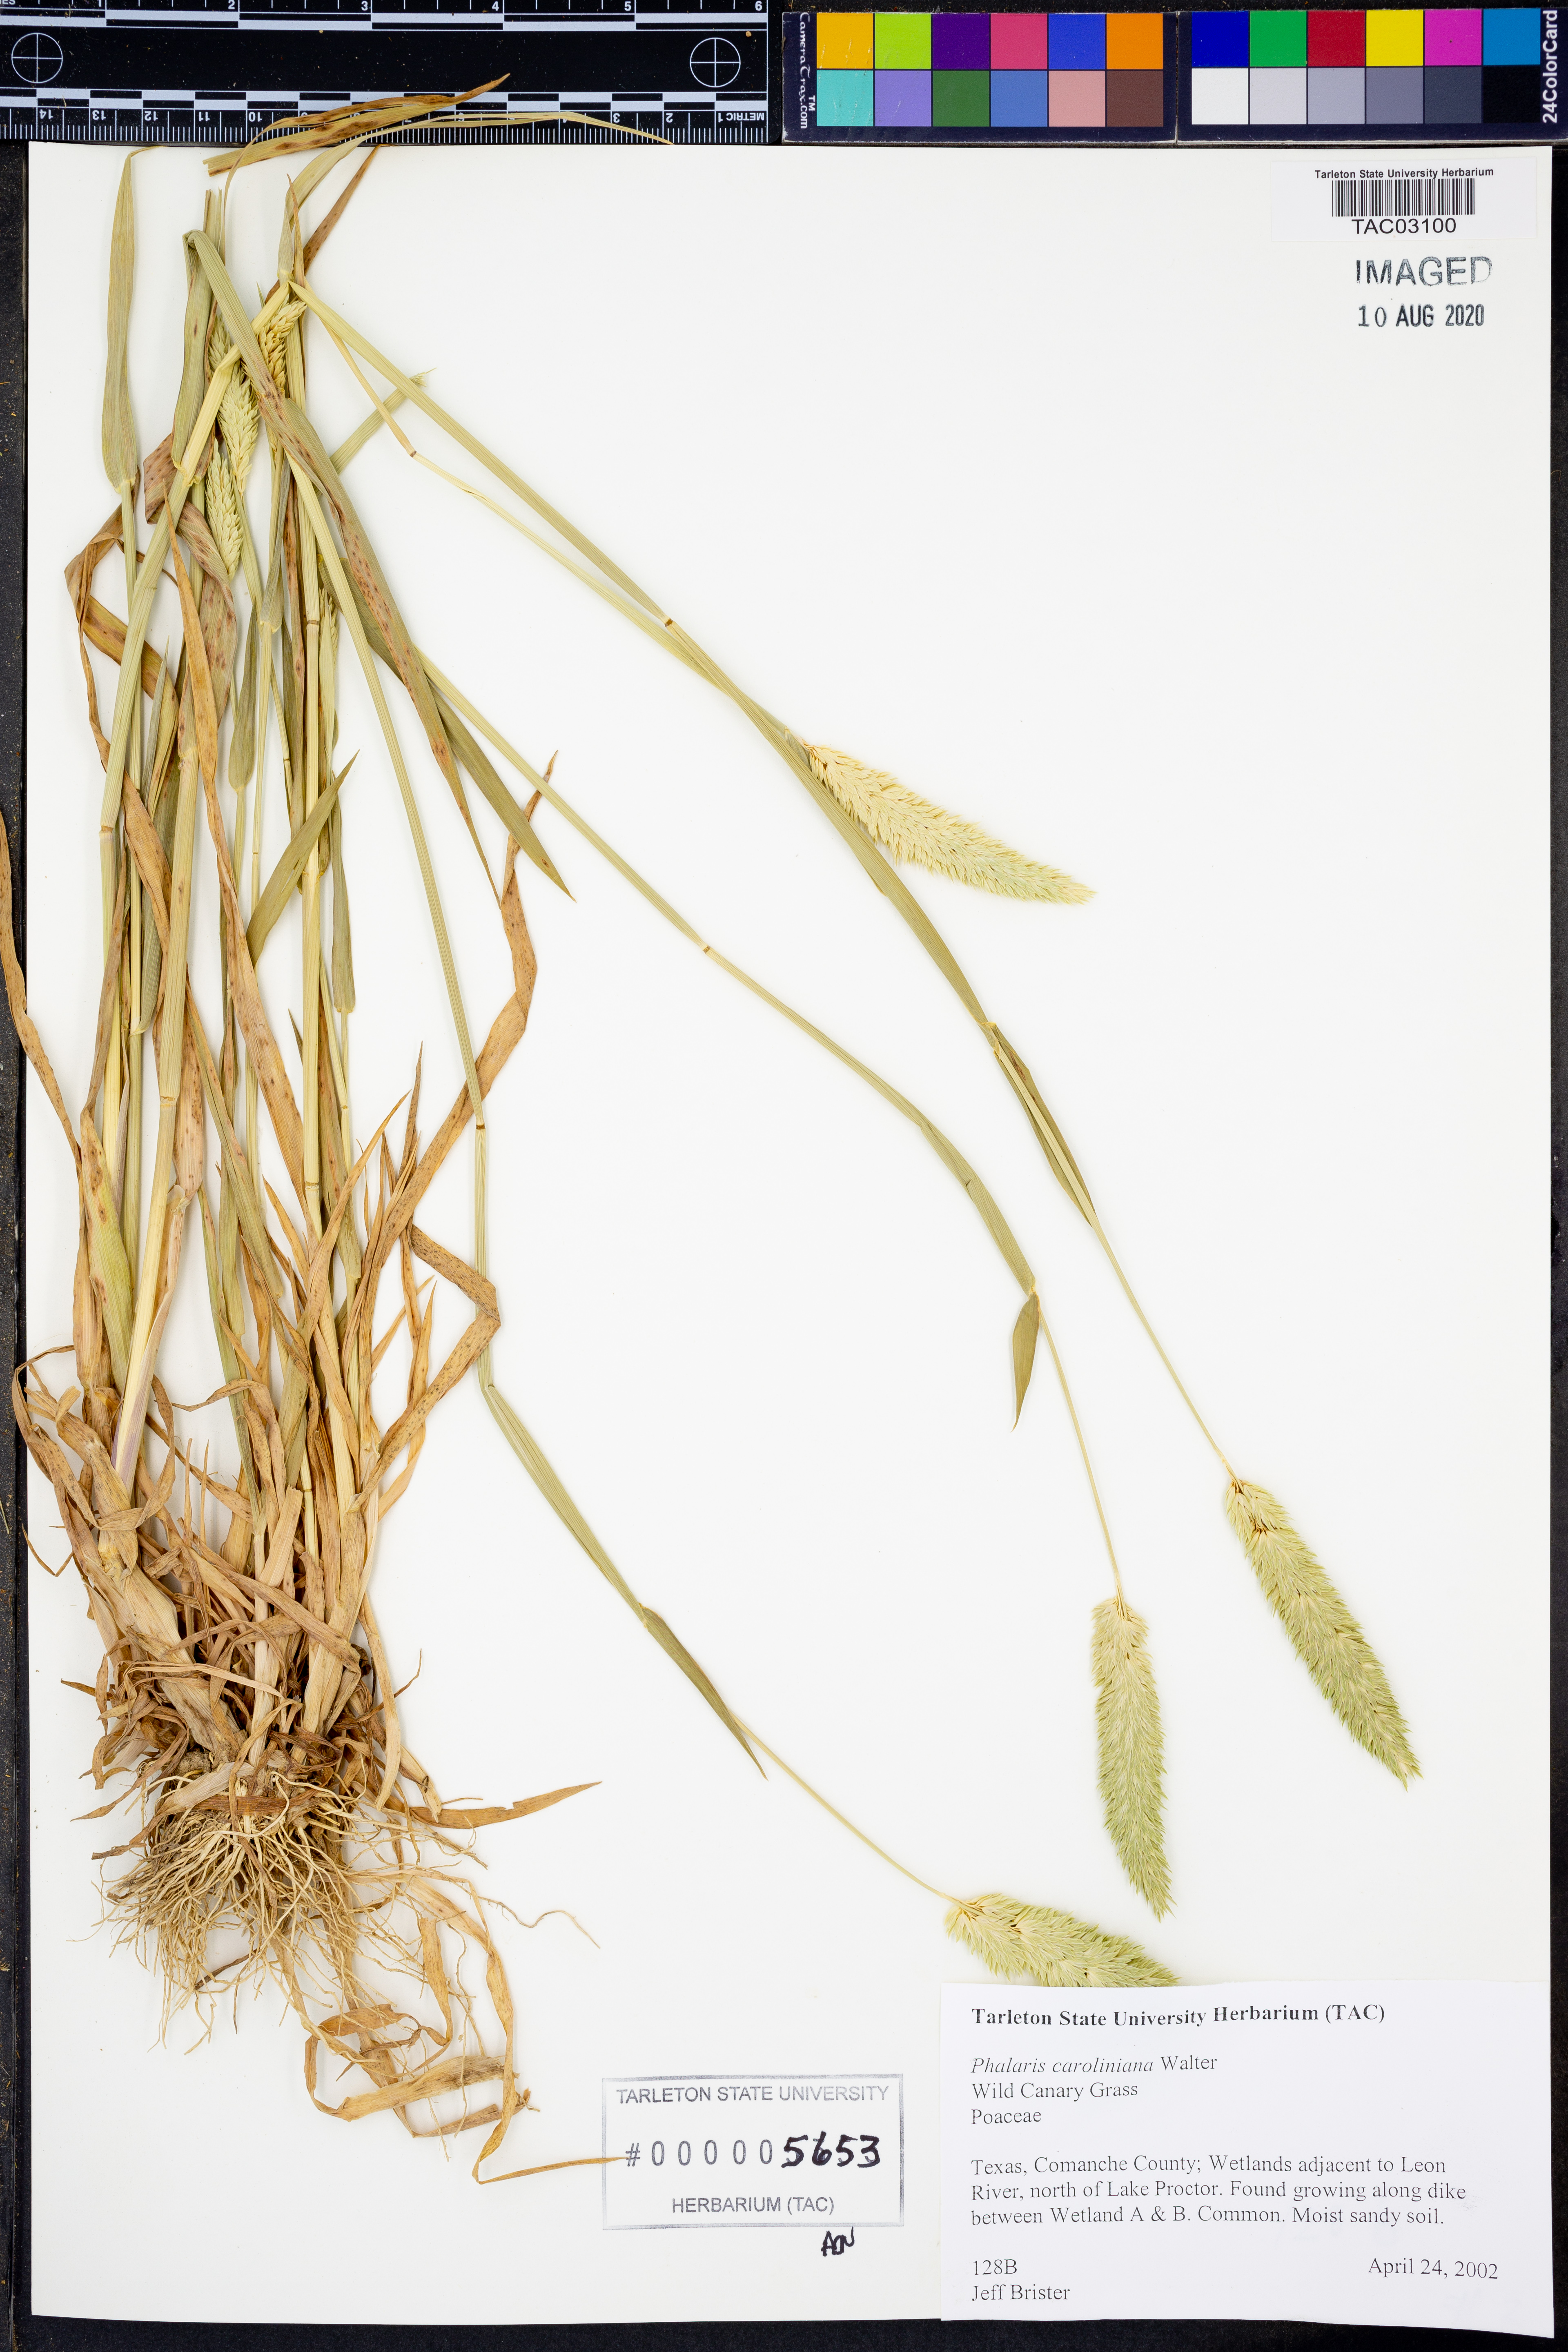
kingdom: Plantae
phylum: Tracheophyta
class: Liliopsida
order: Poales
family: Poaceae
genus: Phalaris
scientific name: Phalaris caroliniana
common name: May grass
